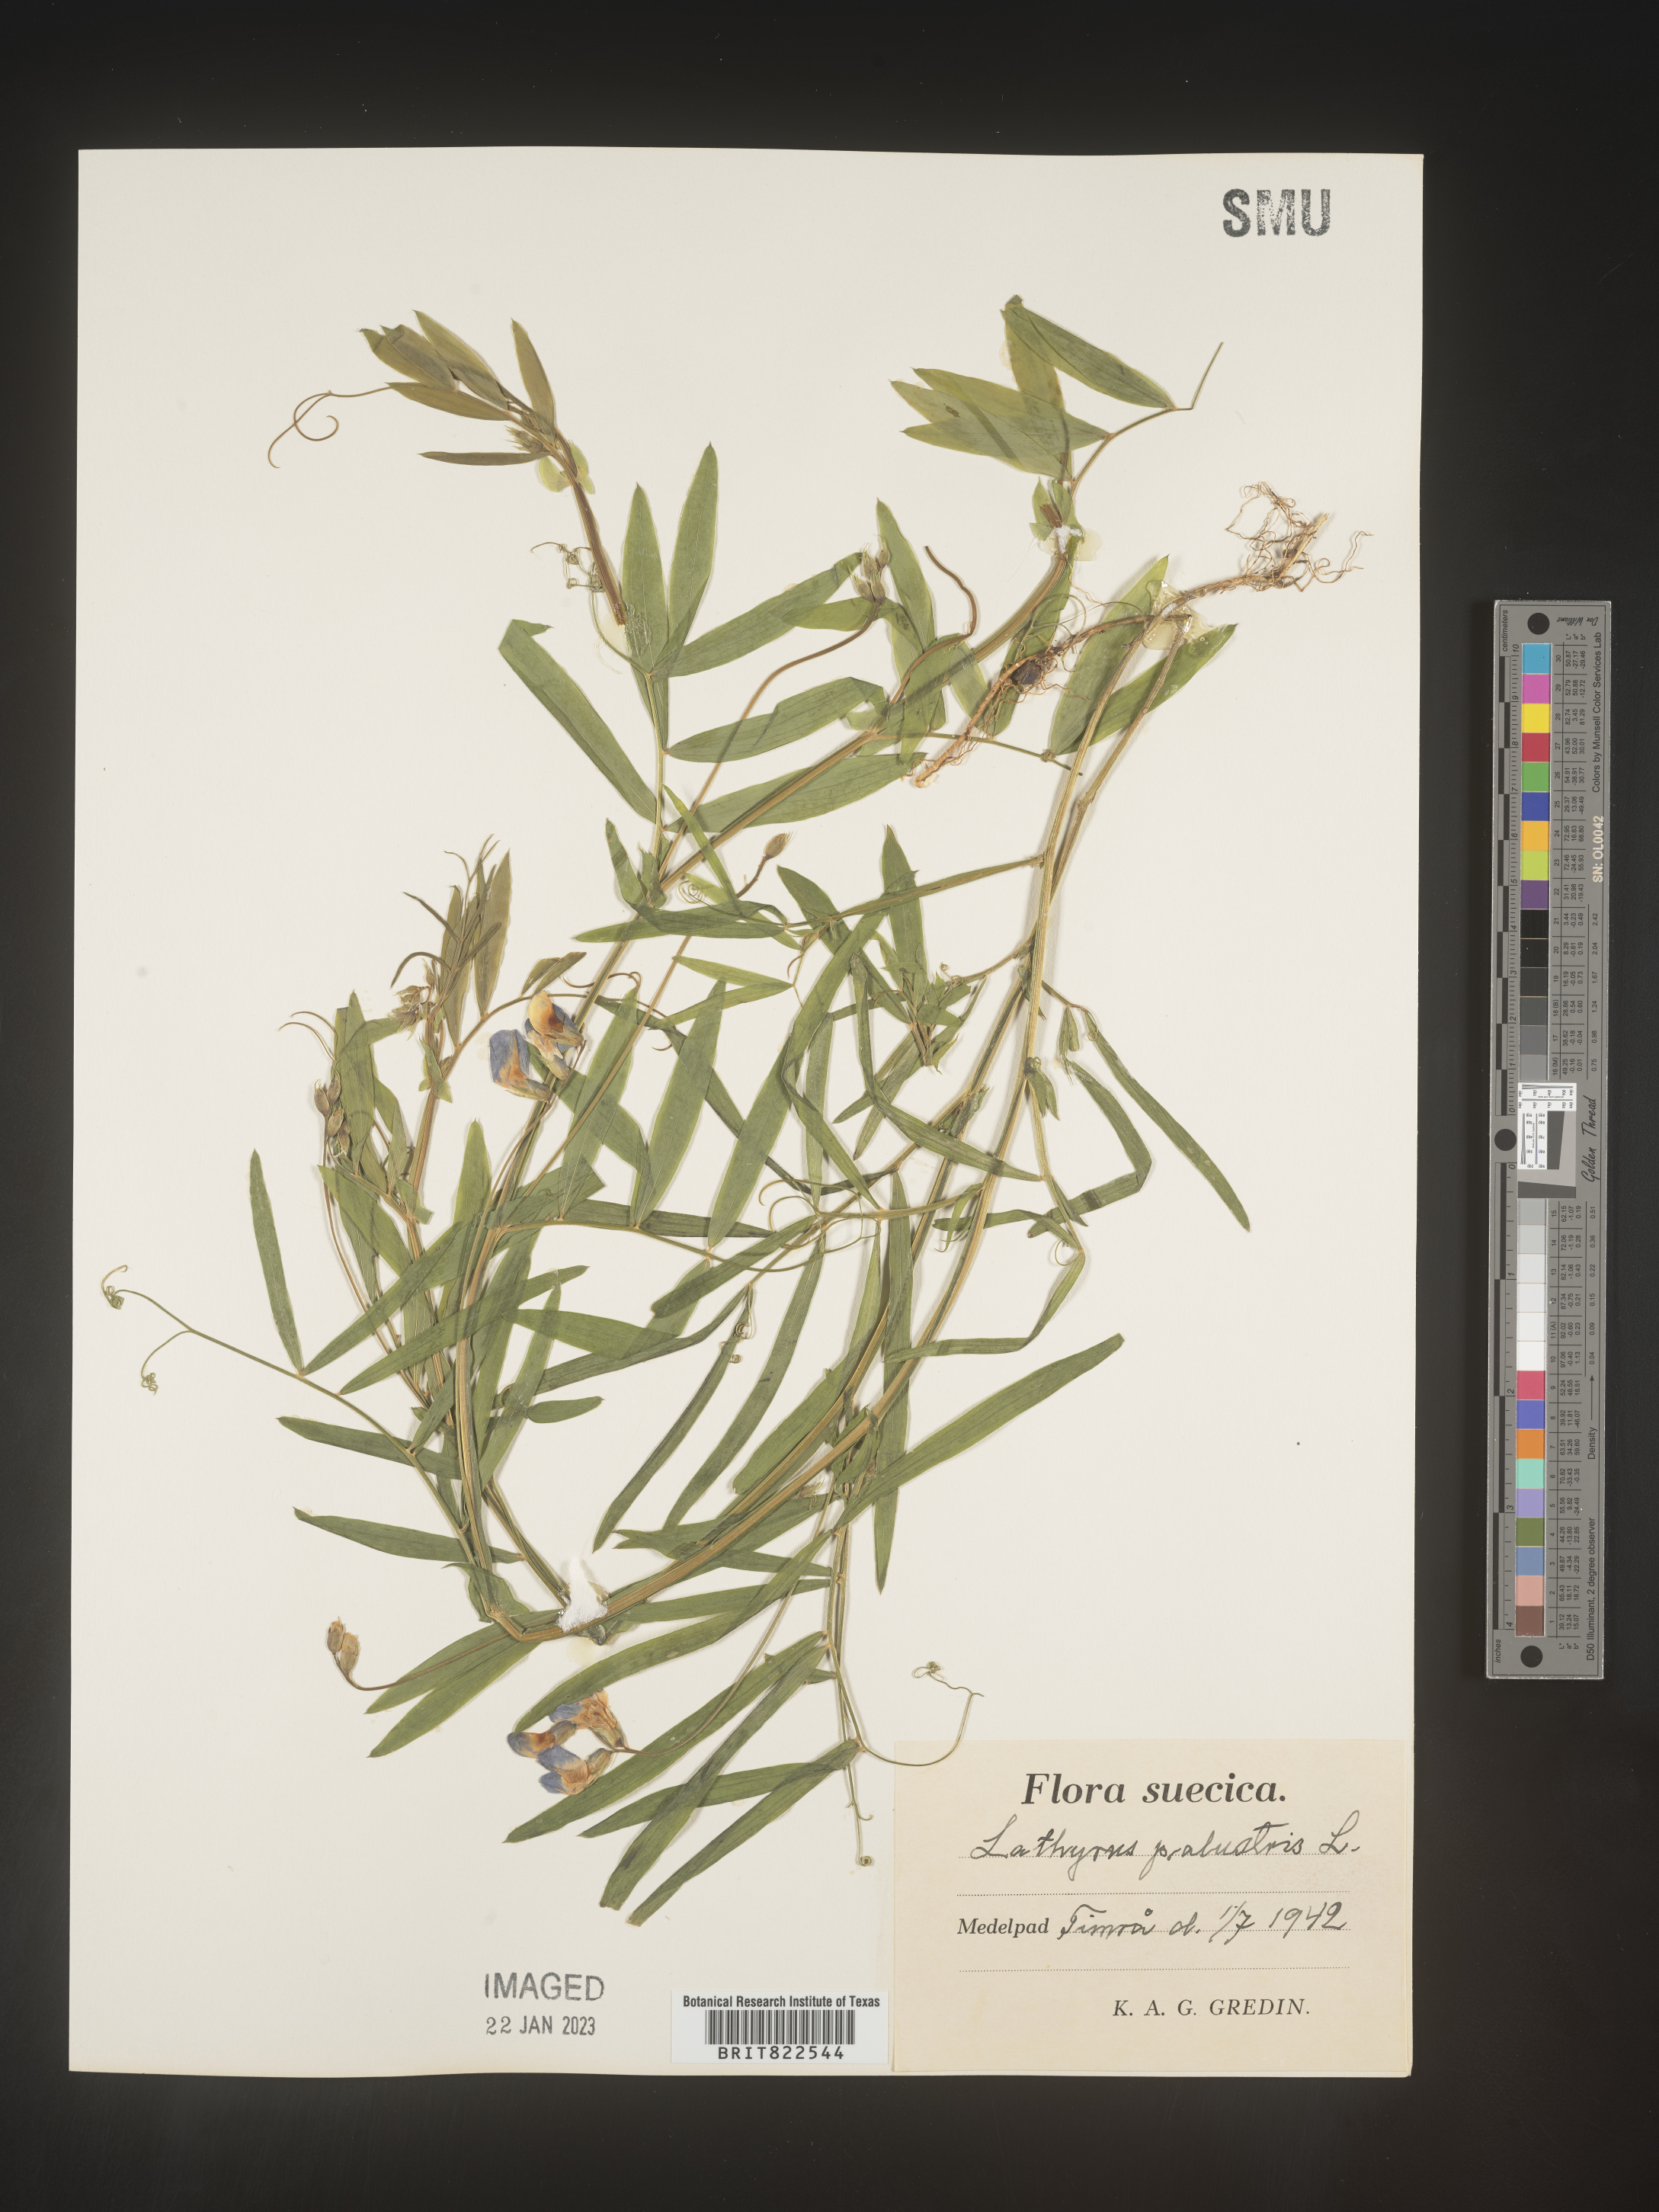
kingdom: Plantae
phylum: Tracheophyta
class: Magnoliopsida
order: Fabales
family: Fabaceae
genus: Lathyrus
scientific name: Lathyrus
